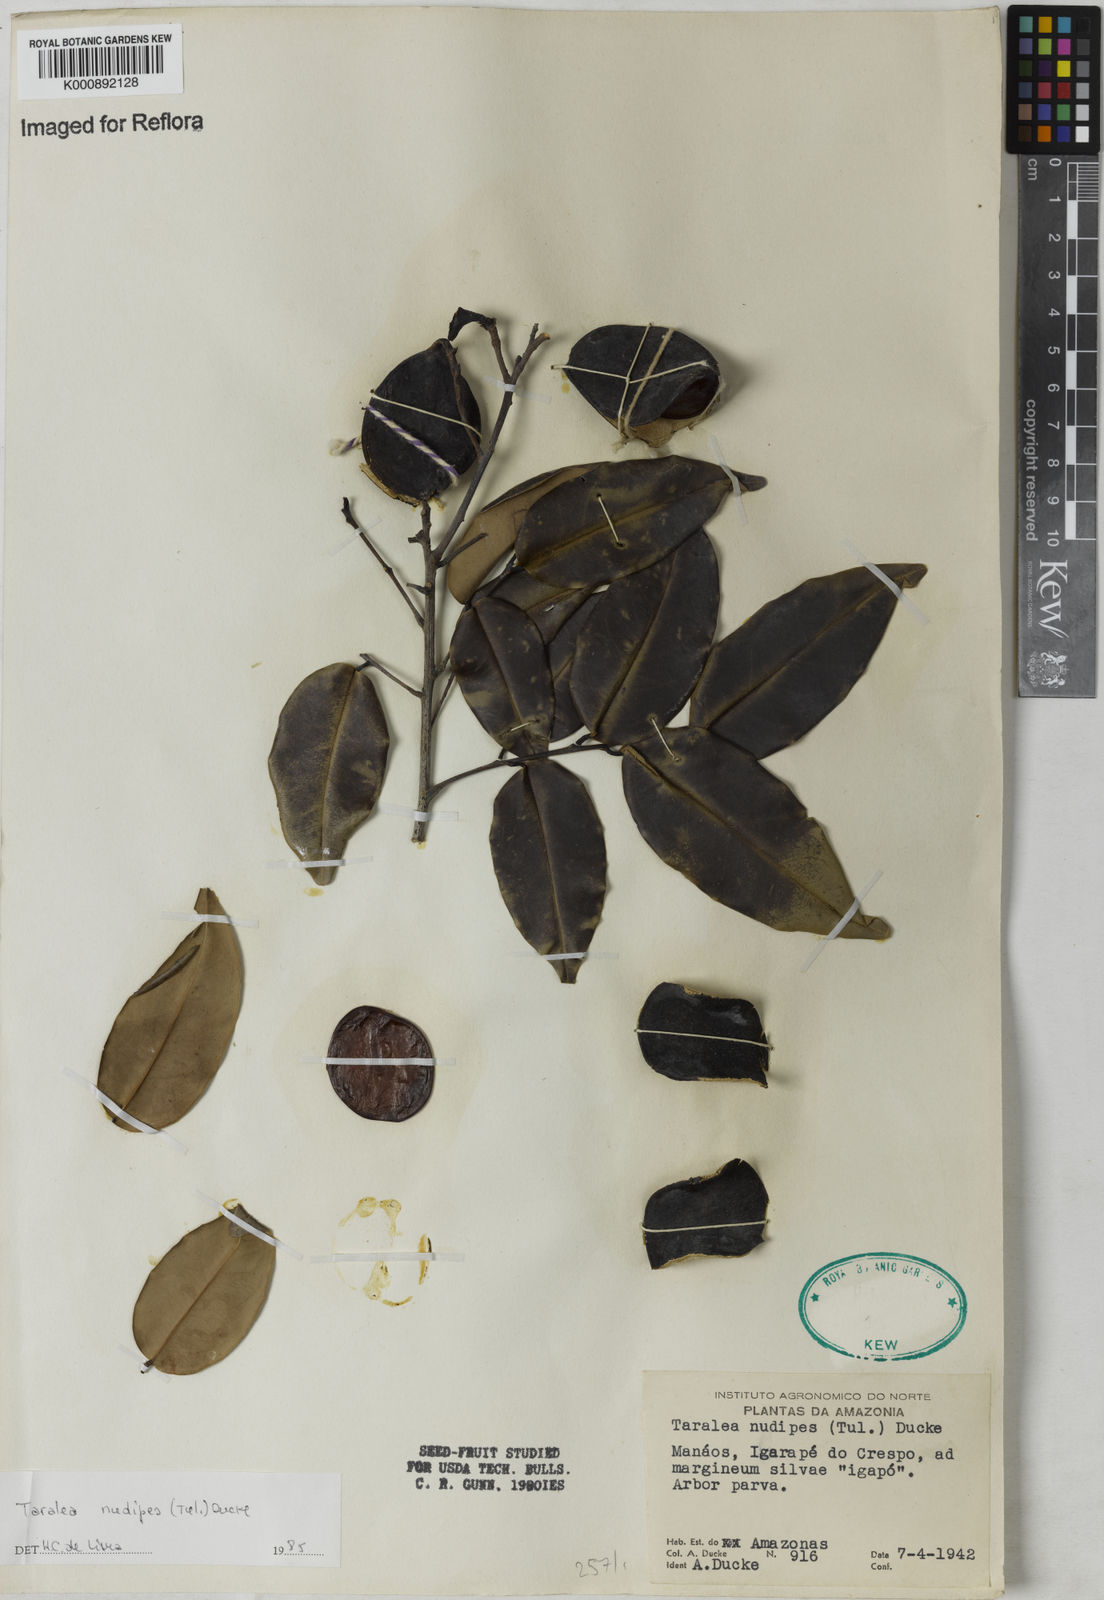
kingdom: Plantae
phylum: Tracheophyta
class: Magnoliopsida
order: Fabales
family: Fabaceae
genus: Taralea
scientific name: Taralea nudipes
